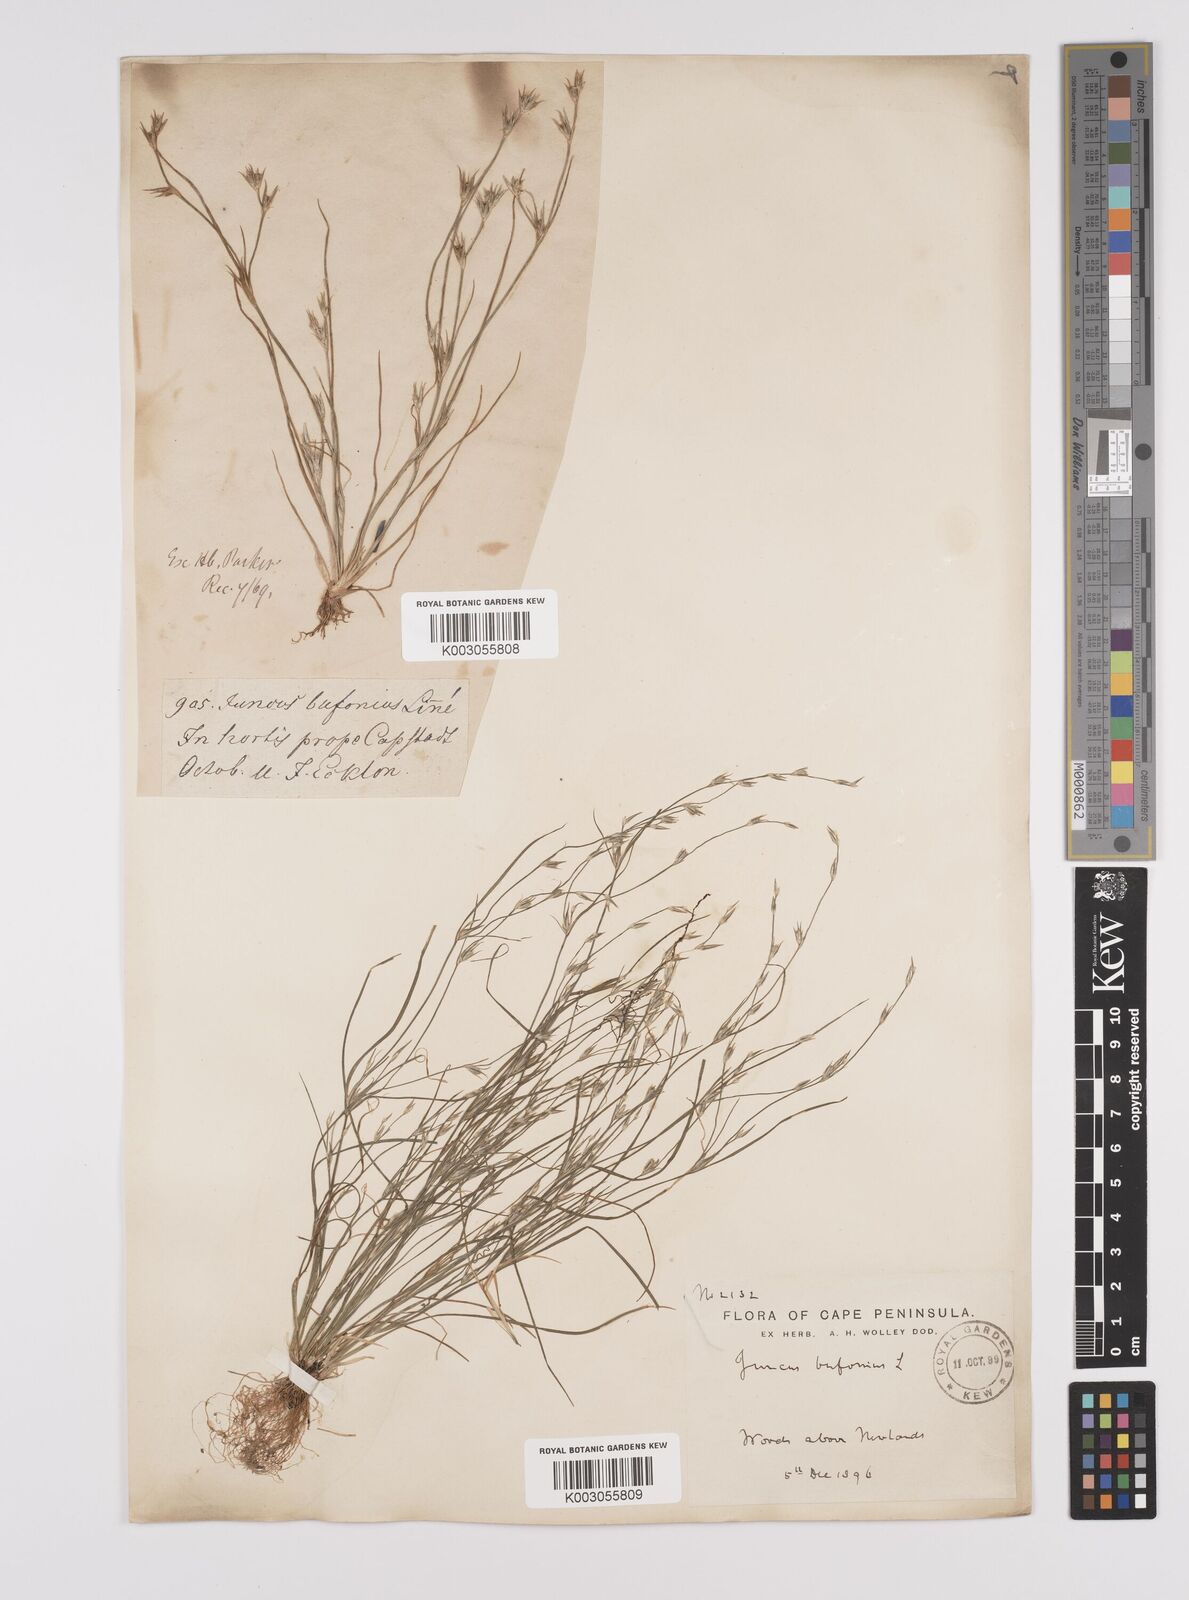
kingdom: Plantae
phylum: Tracheophyta
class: Liliopsida
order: Poales
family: Juncaceae
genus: Juncus
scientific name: Juncus bufonius
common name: Toad rush
